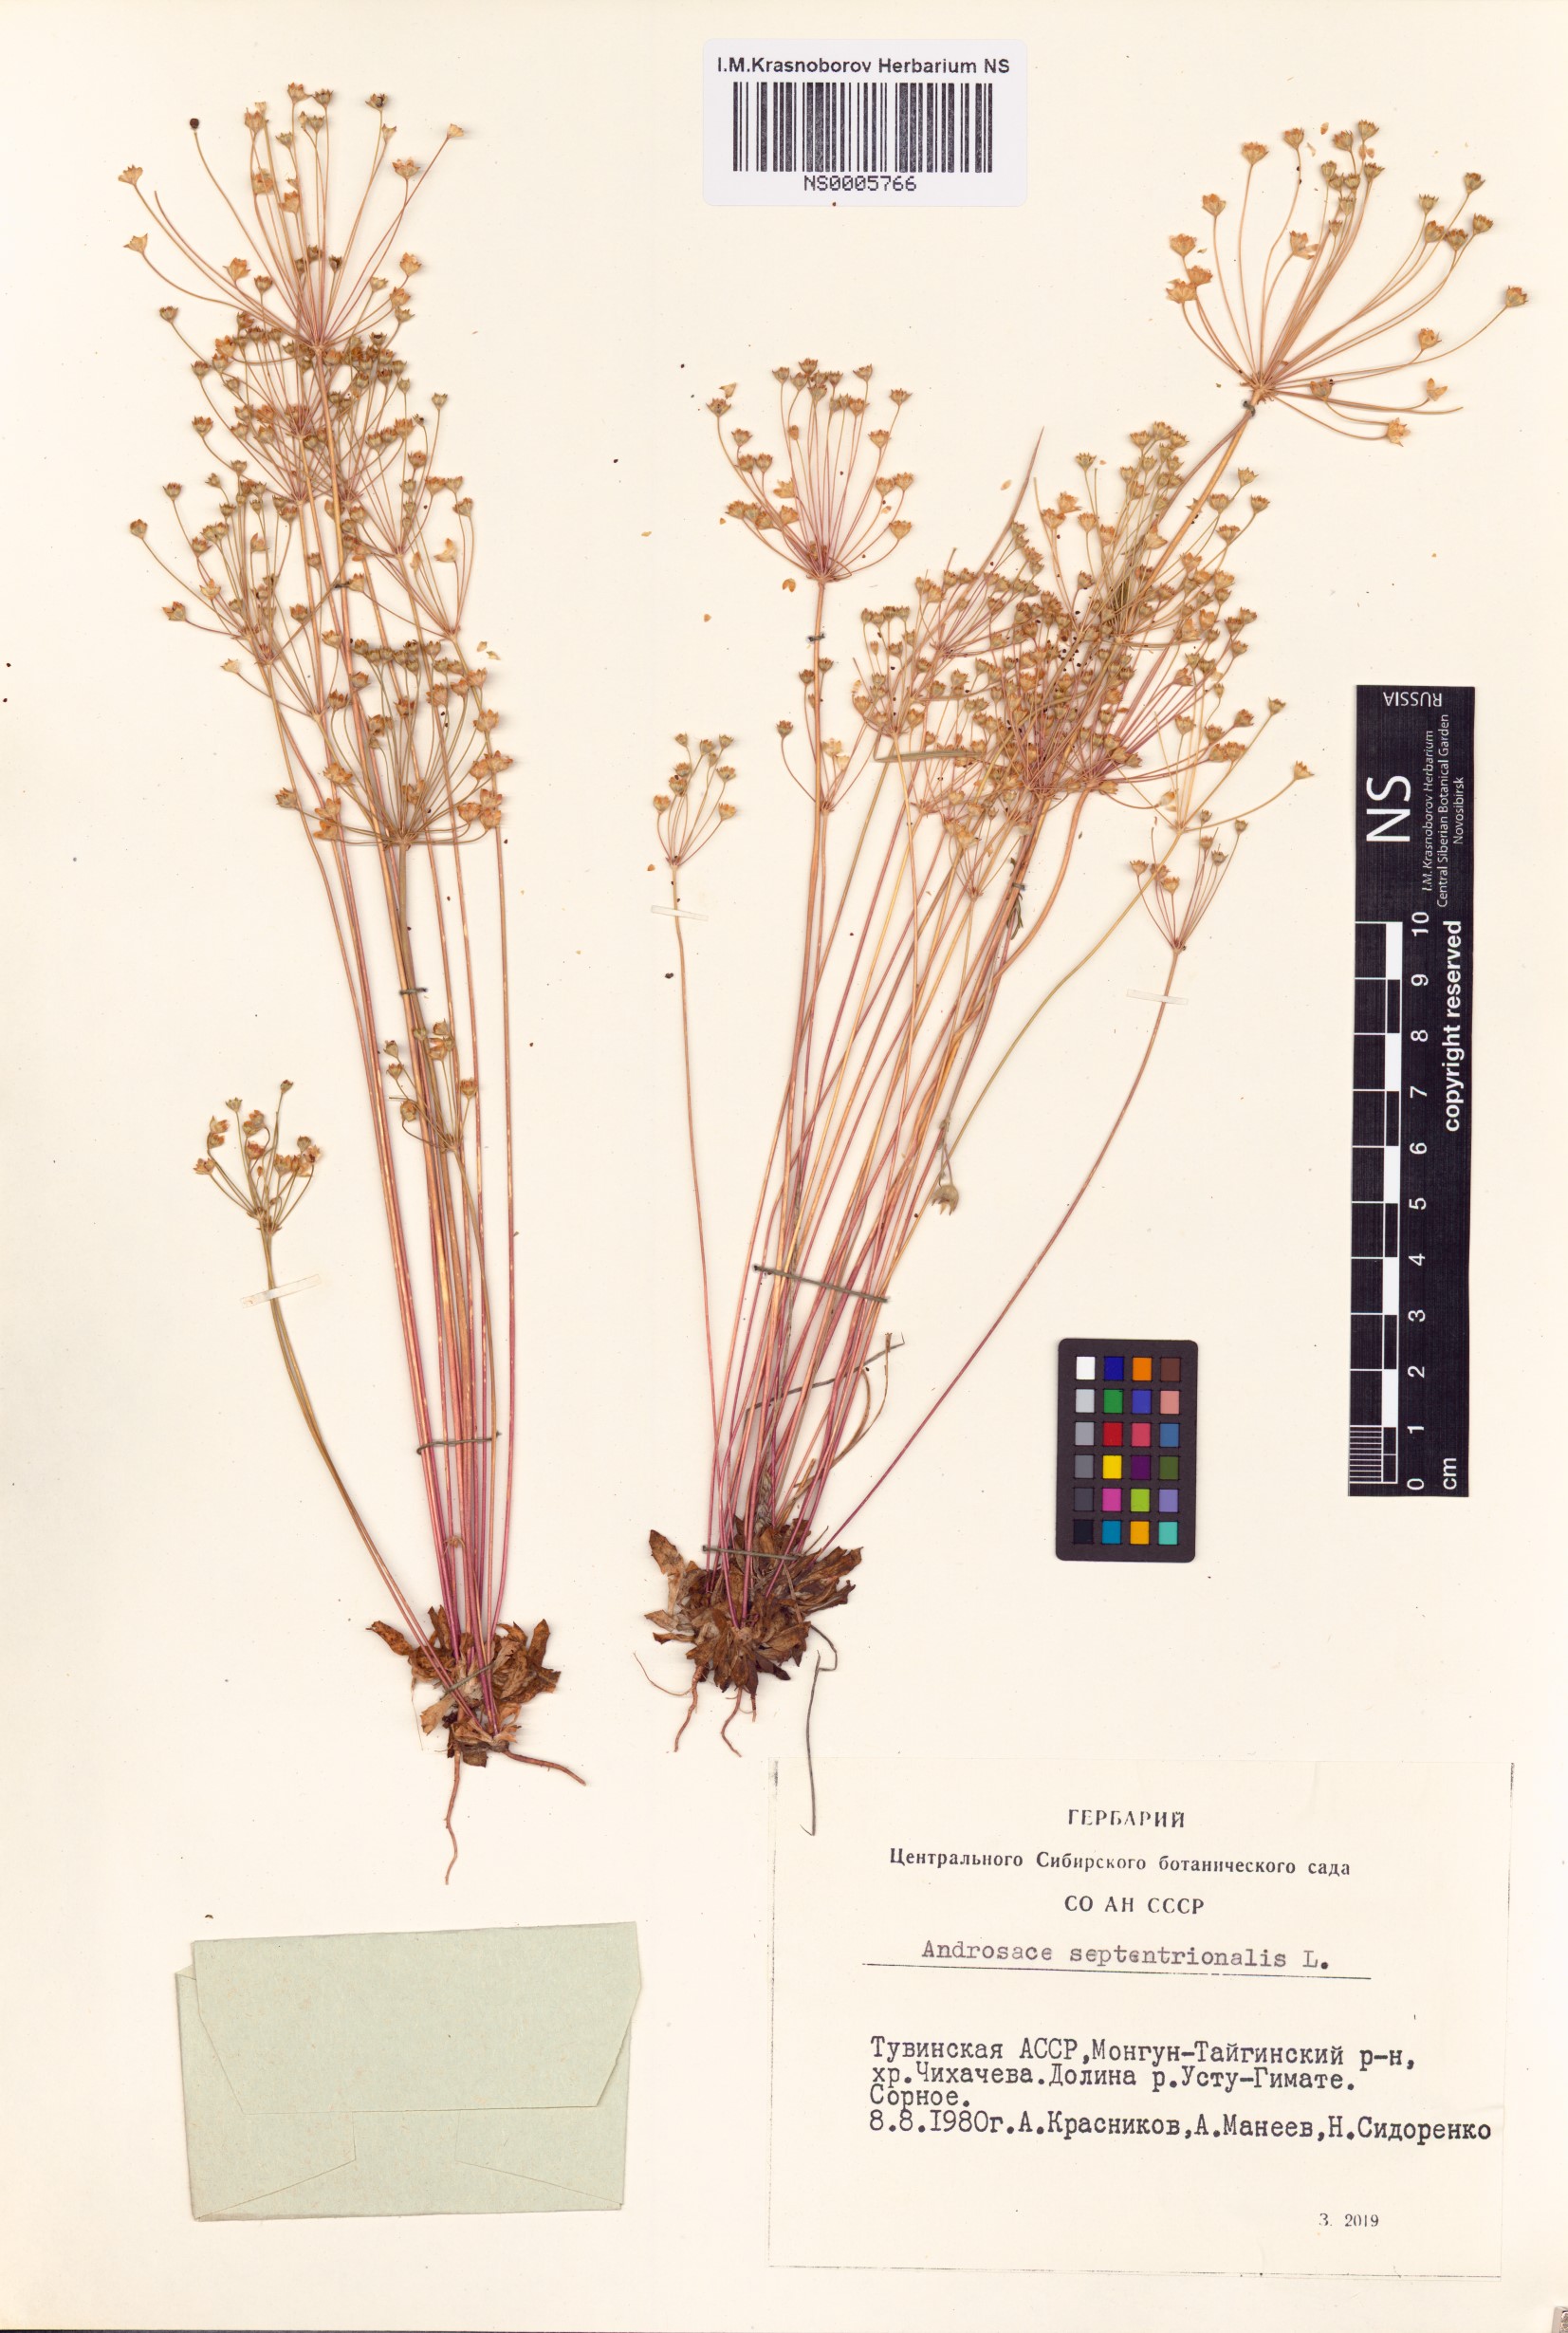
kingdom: Plantae
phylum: Tracheophyta
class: Magnoliopsida
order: Ericales
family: Primulaceae
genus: Androsace
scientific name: Androsace septentrionalis
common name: Hairy northern fairy-candelabra
